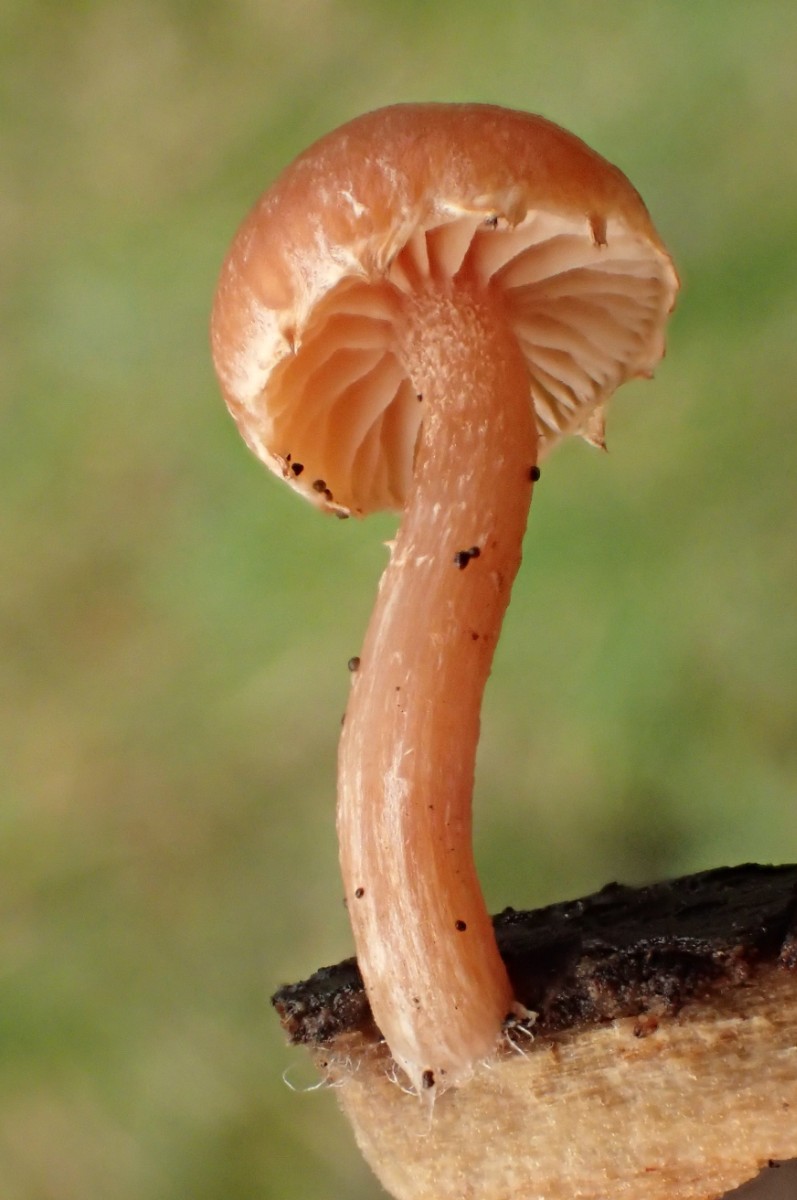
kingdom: Fungi
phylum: Basidiomycota
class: Agaricomycetes
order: Agaricales
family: Tubariaceae
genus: Tubaria
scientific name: Tubaria furfuracea
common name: kliddet fnughat
